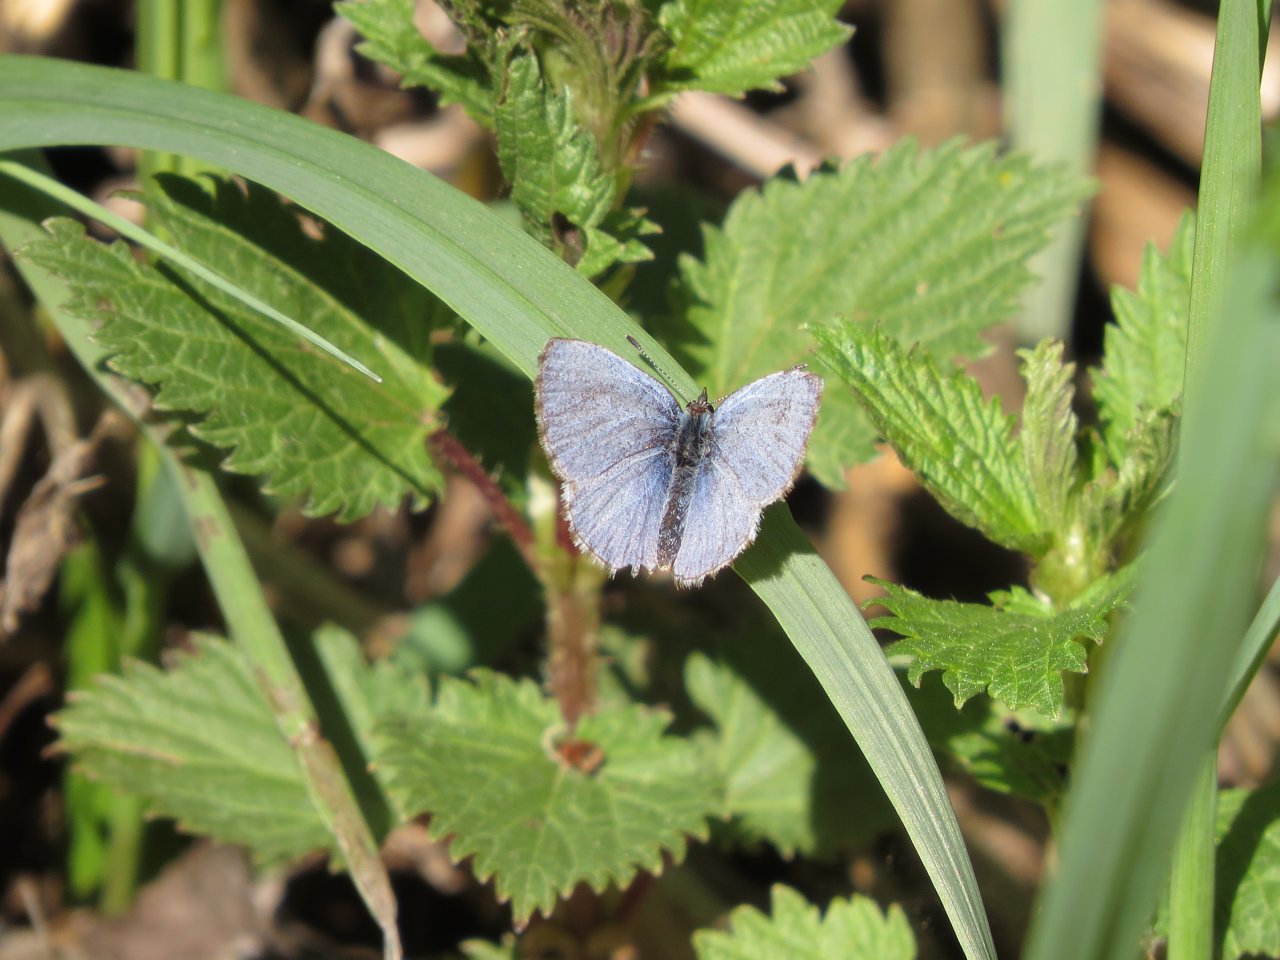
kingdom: Animalia
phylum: Arthropoda
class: Insecta
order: Lepidoptera
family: Lycaenidae
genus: Glaucopsyche
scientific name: Glaucopsyche lygdamus
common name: Silvery Blue
